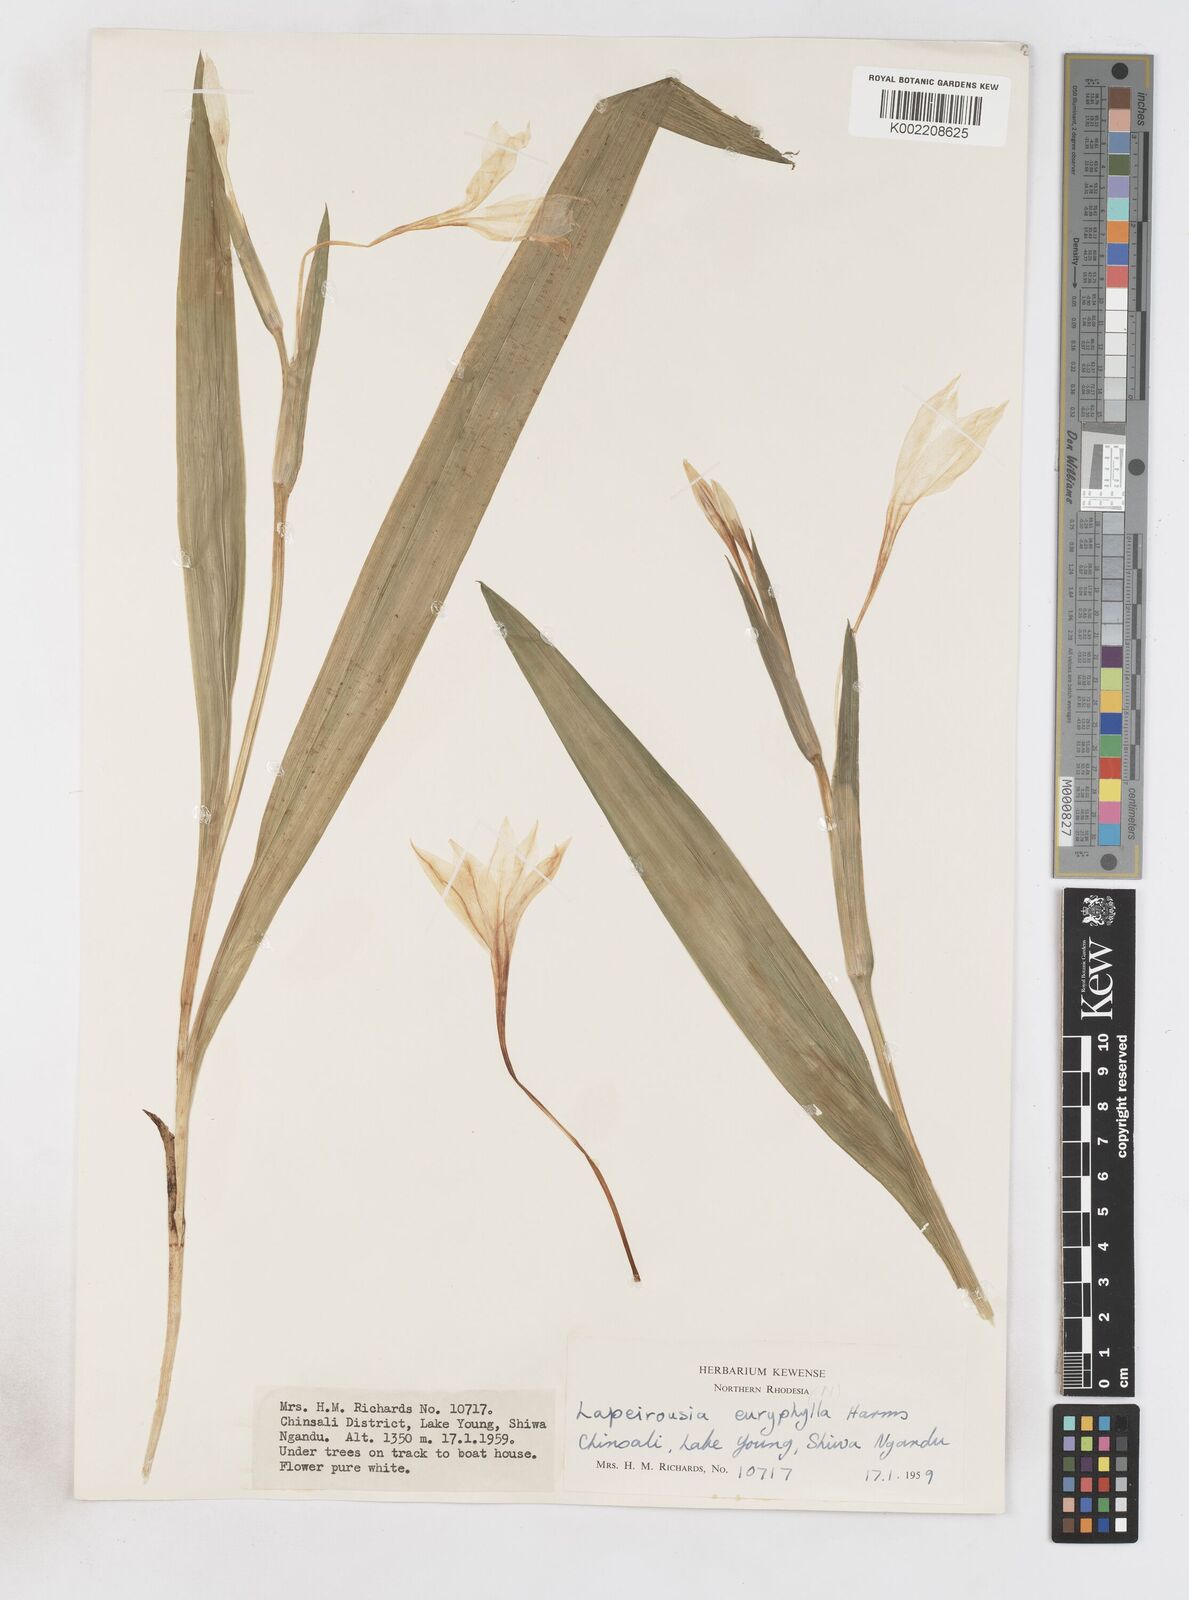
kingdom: Plantae
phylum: Tracheophyta
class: Liliopsida
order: Asparagales
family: Iridaceae
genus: Savannosiphon
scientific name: Savannosiphon euryphylla
